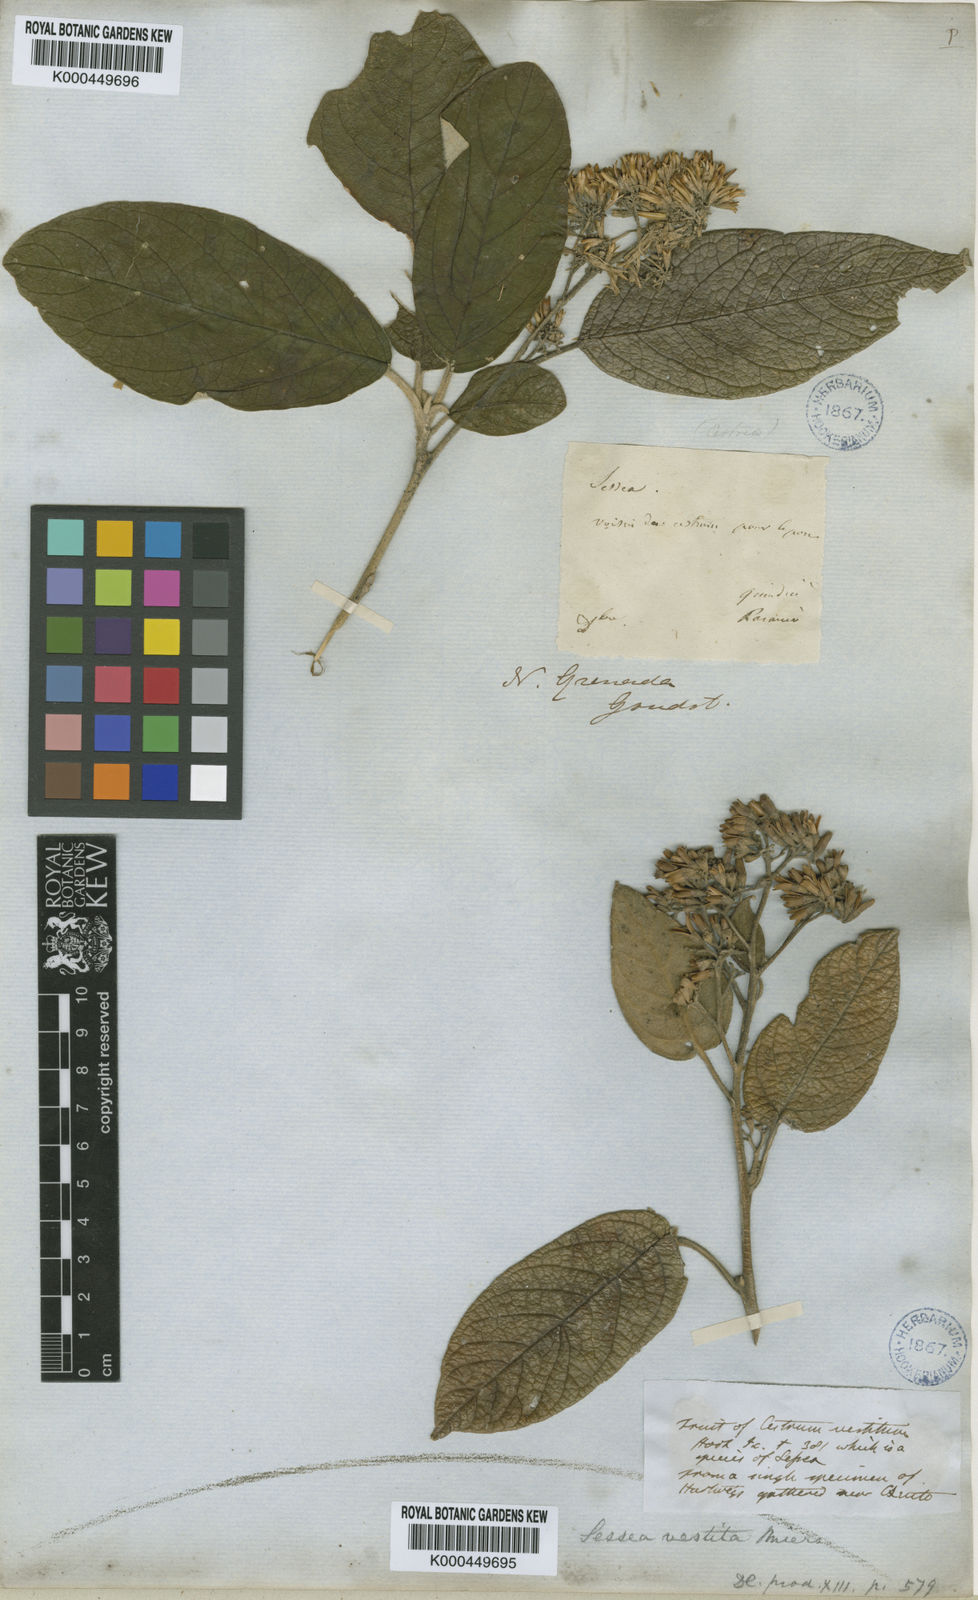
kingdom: Plantae
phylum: Tracheophyta
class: Magnoliopsida
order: Solanales
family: Solanaceae
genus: Sessea
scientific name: Sessea vestita
